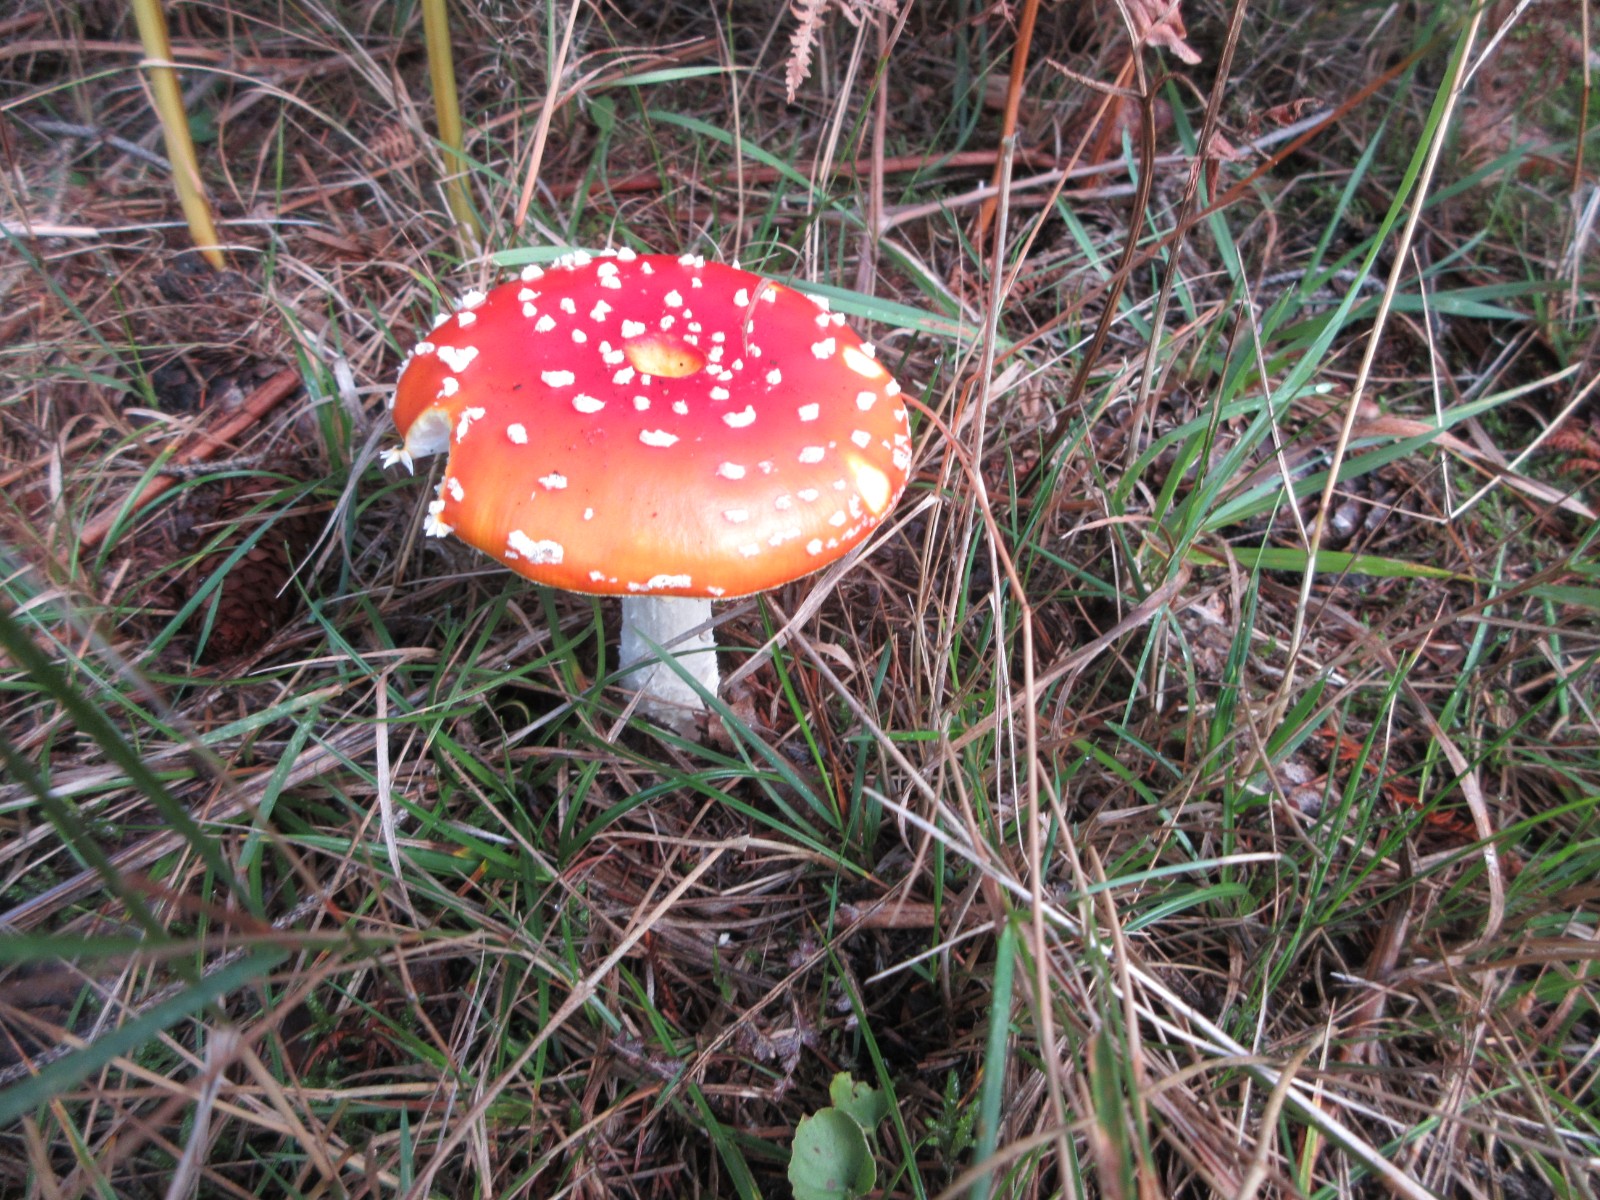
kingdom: Fungi
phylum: Basidiomycota
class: Agaricomycetes
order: Agaricales
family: Amanitaceae
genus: Amanita
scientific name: Amanita muscaria
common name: rød fluesvamp
